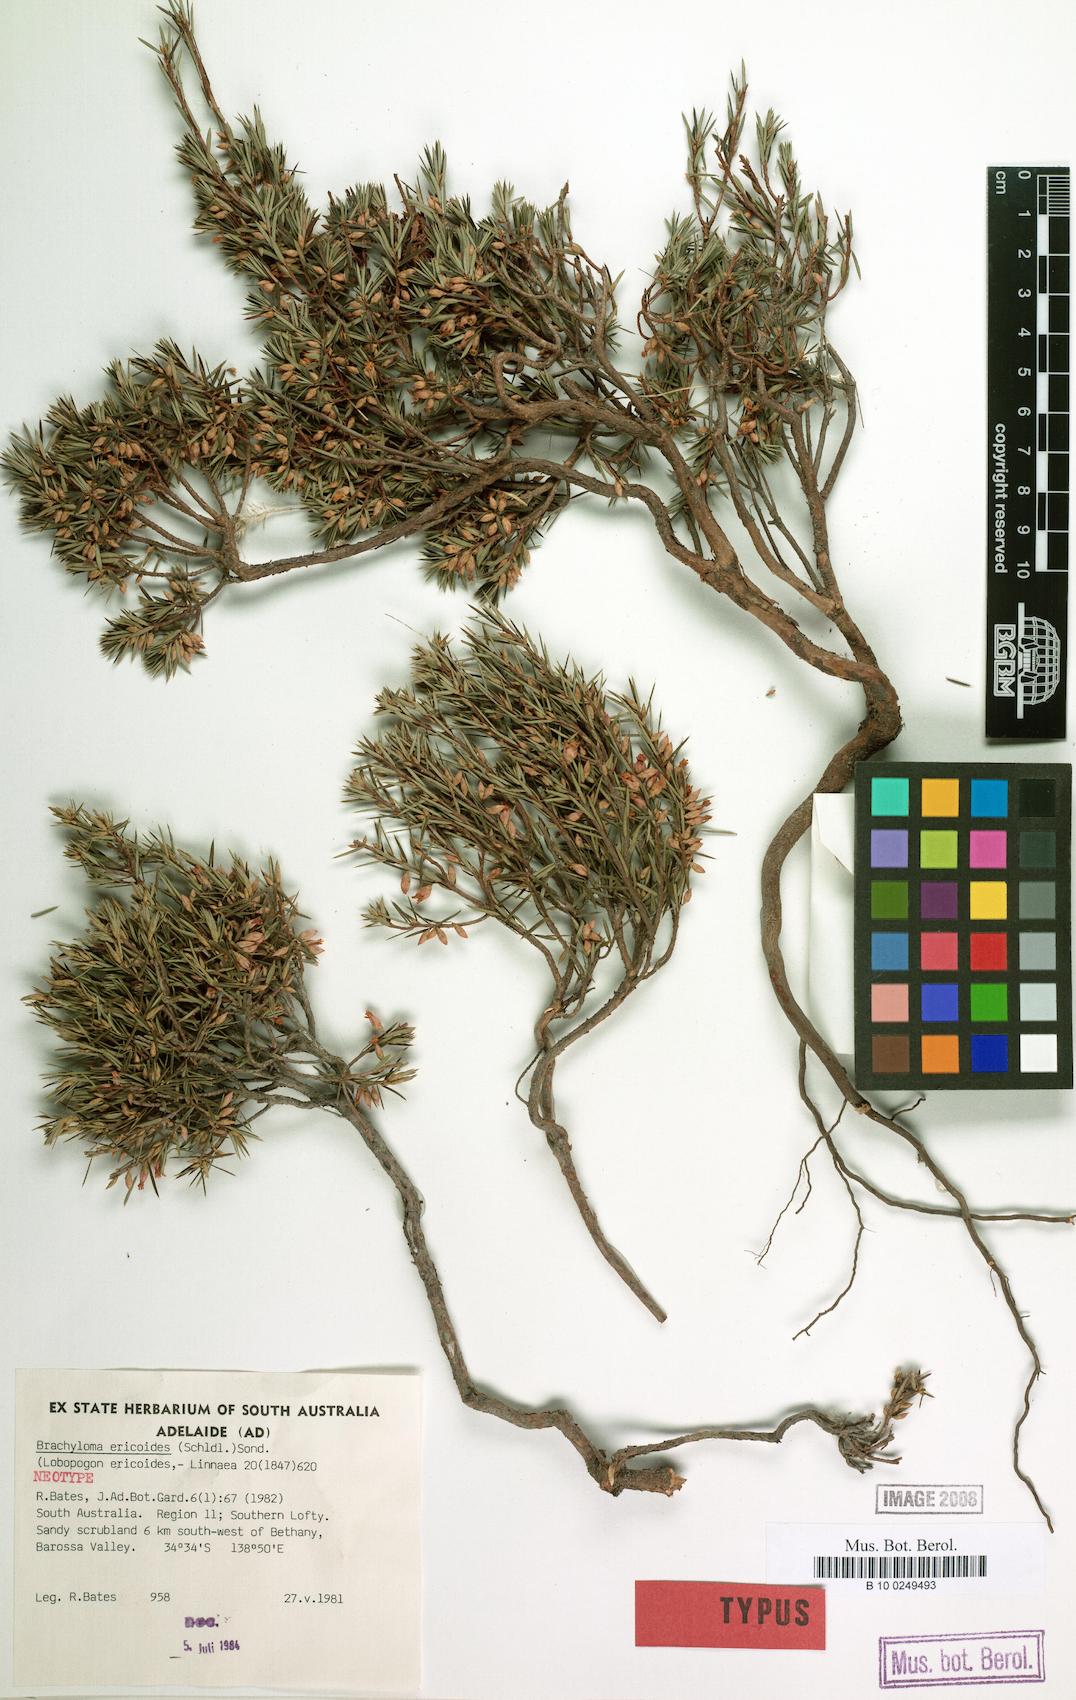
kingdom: Plantae
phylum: Tracheophyta
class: Magnoliopsida
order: Ericales
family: Ericaceae
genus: Brachyloma
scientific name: Brachyloma ericoides
